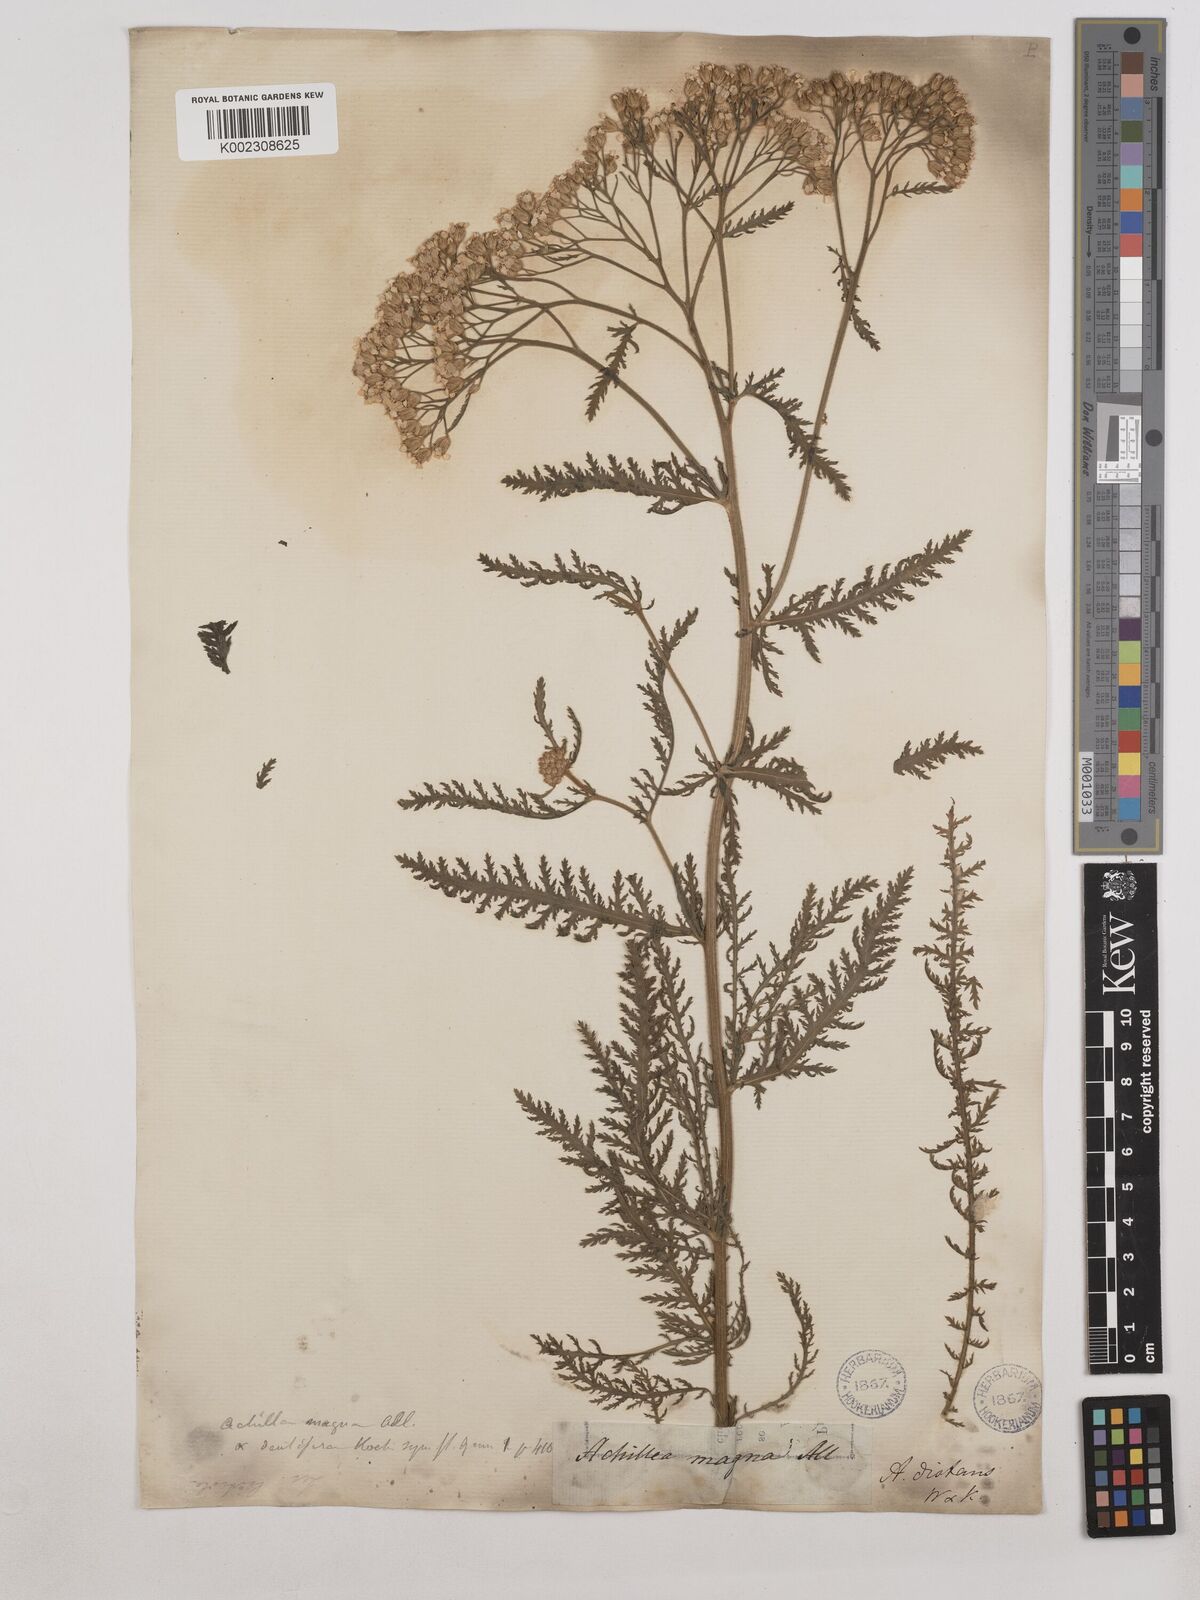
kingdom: Plantae
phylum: Tracheophyta
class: Magnoliopsida
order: Asterales
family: Asteraceae
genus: Achillea
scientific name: Achillea distans
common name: Tall yarrow
